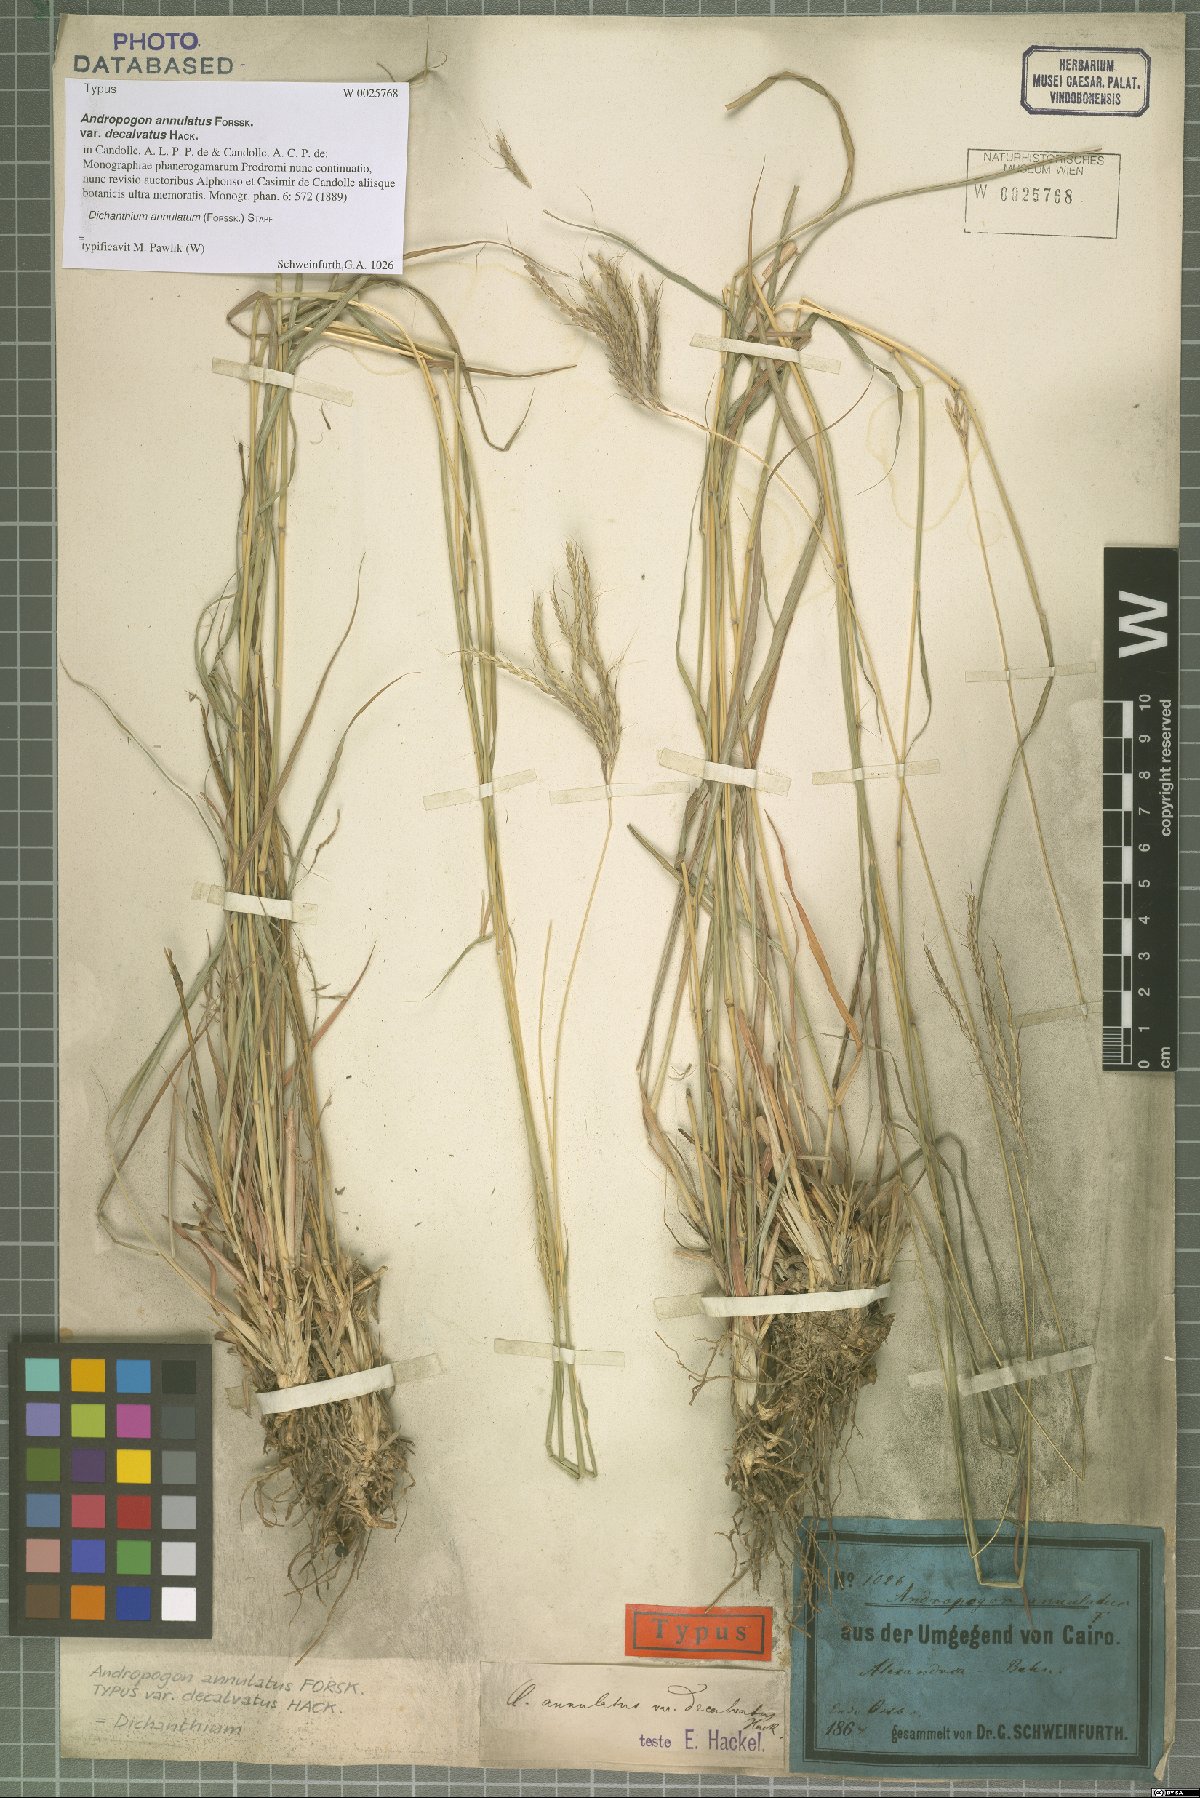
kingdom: Plantae
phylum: Tracheophyta
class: Liliopsida
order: Poales
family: Poaceae
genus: Dichanthium
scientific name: Dichanthium annulatum
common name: Kleberg's bluestem
